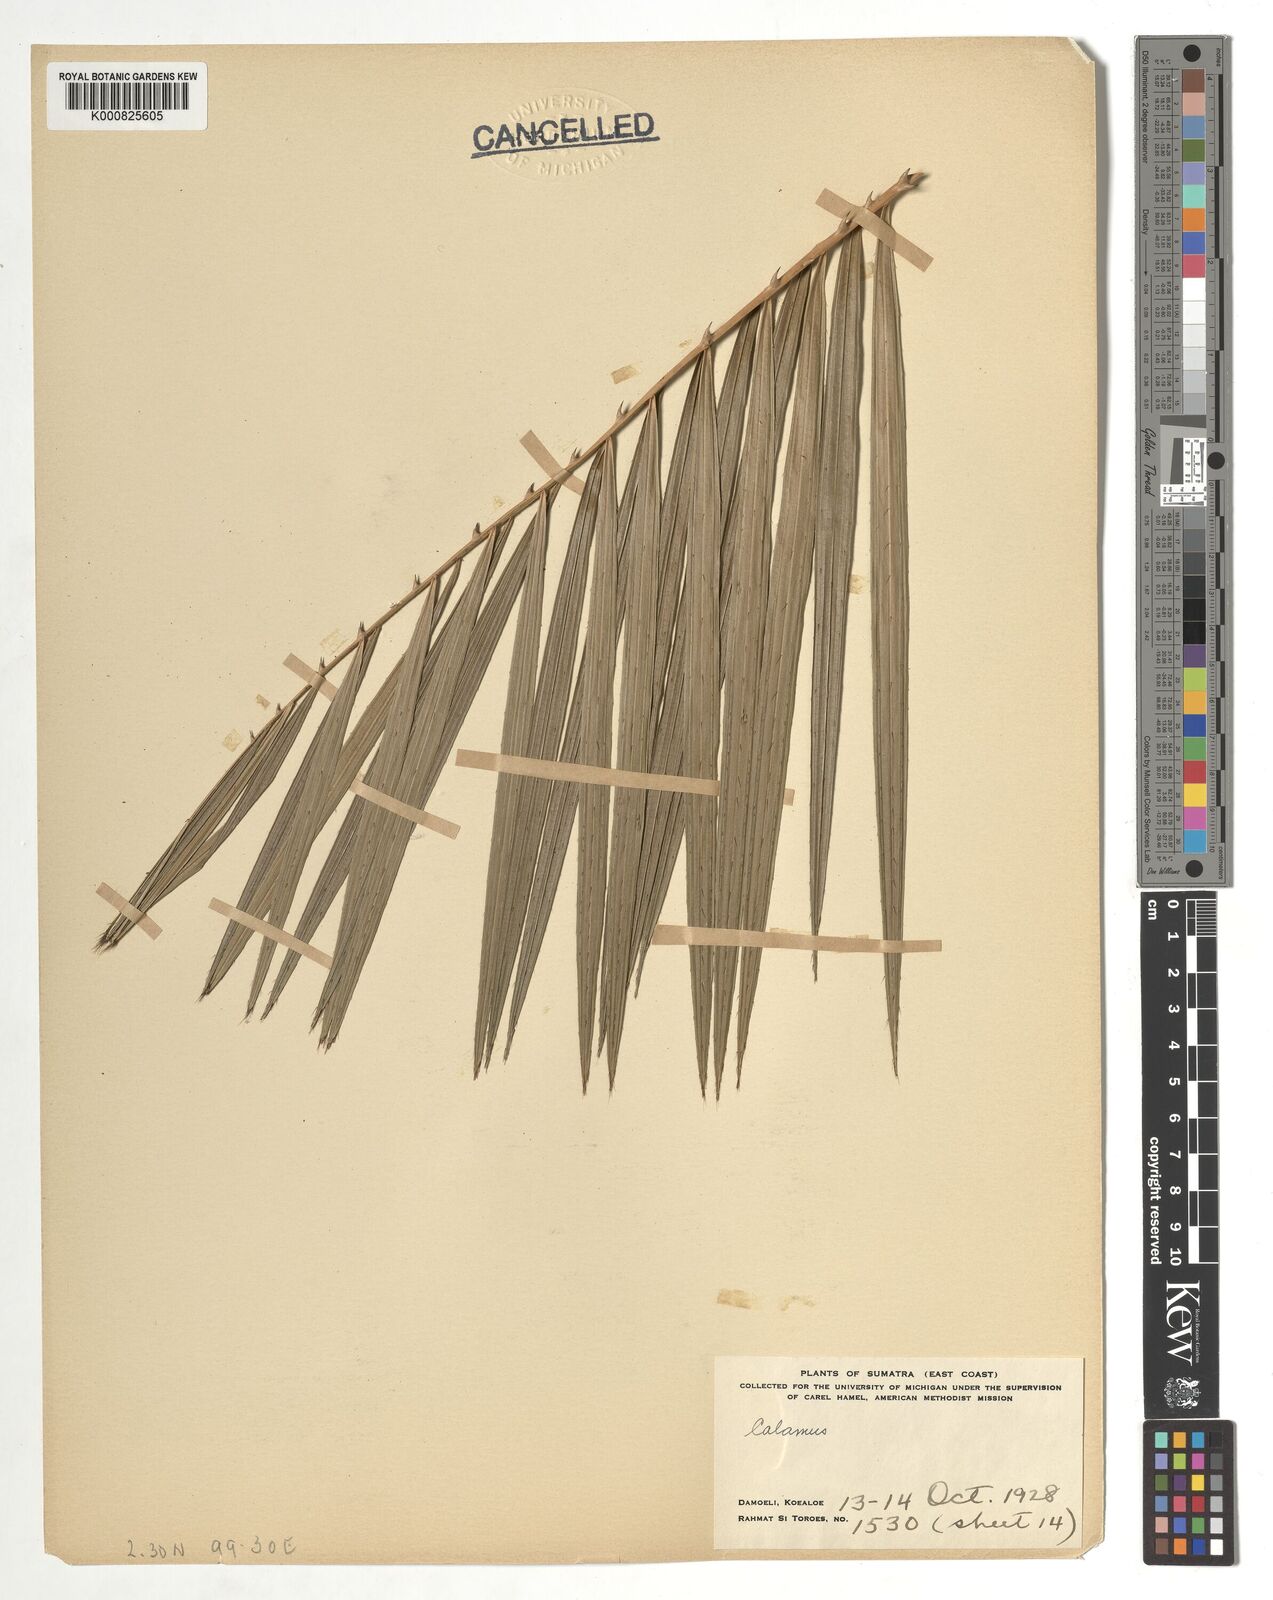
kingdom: Plantae
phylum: Tracheophyta
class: Liliopsida
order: Arecales
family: Arecaceae
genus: Calamus
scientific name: Calamus
